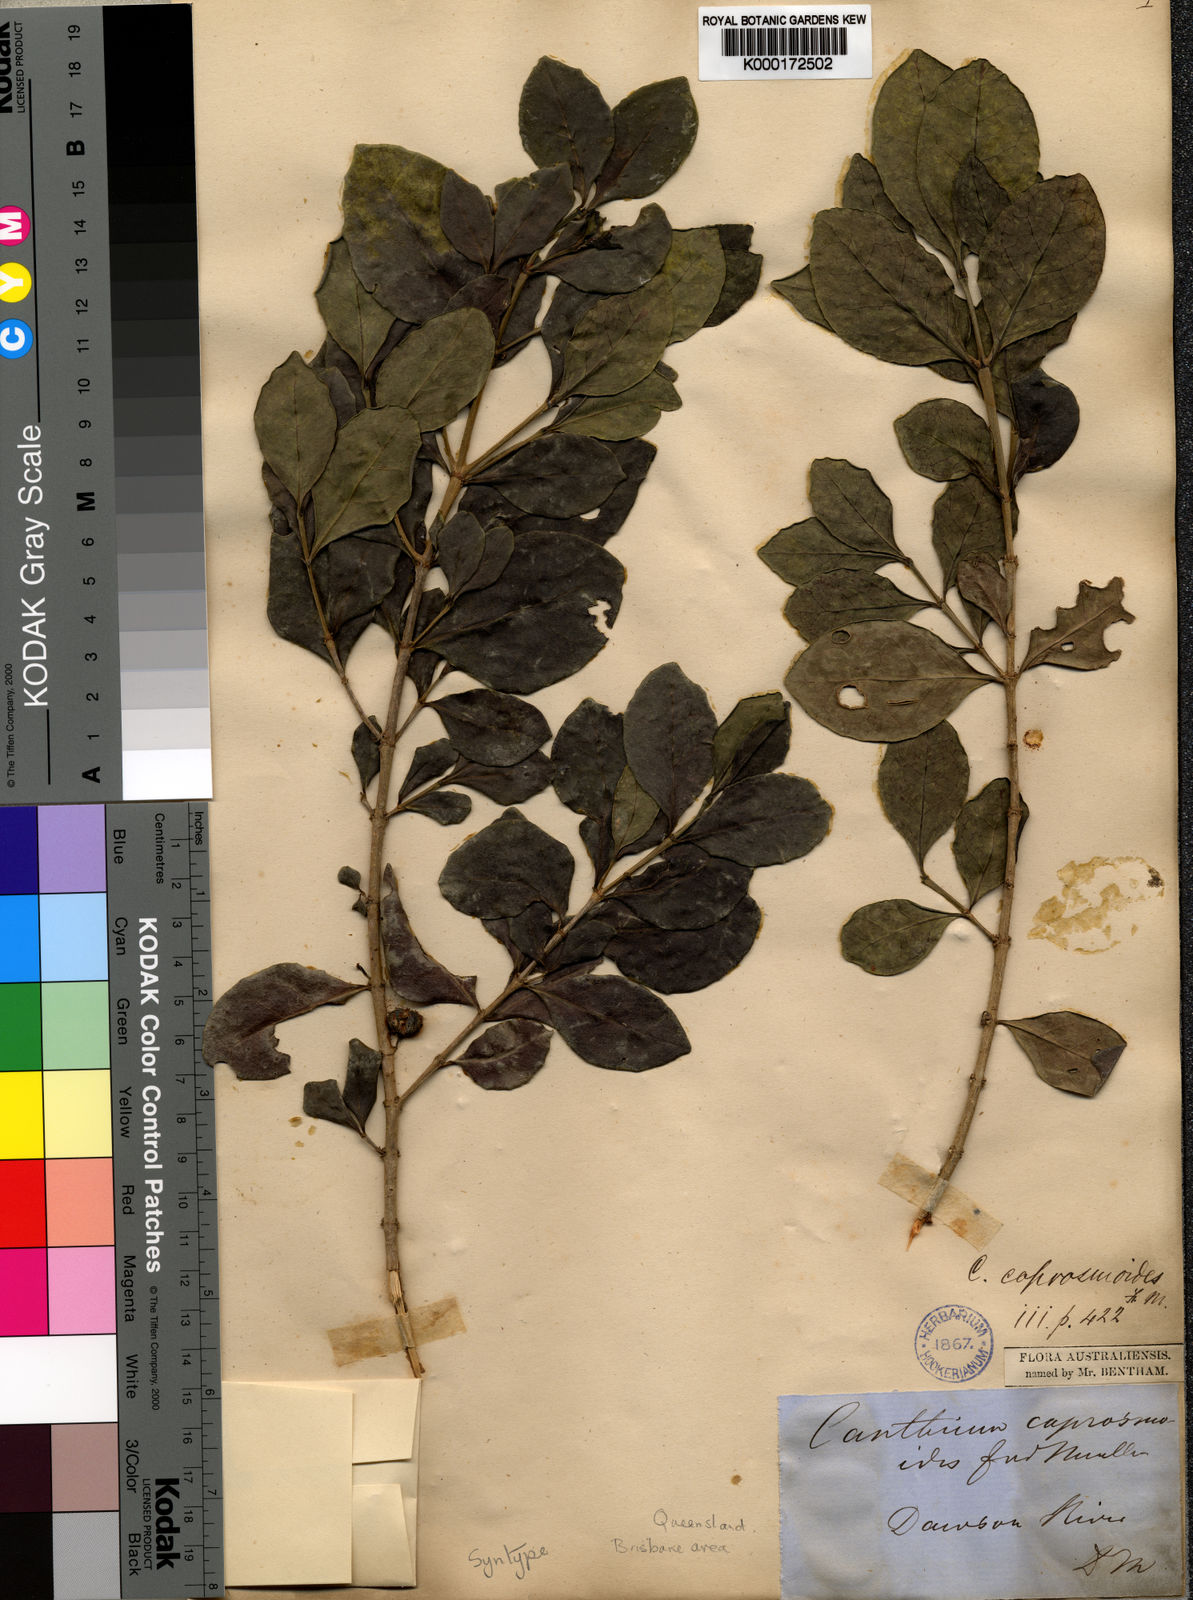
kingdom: Plantae
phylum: Tracheophyta
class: Magnoliopsida
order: Gentianales
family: Rubiaceae
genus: Cyclophyllum
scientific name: Cyclophyllum coprosmoides
